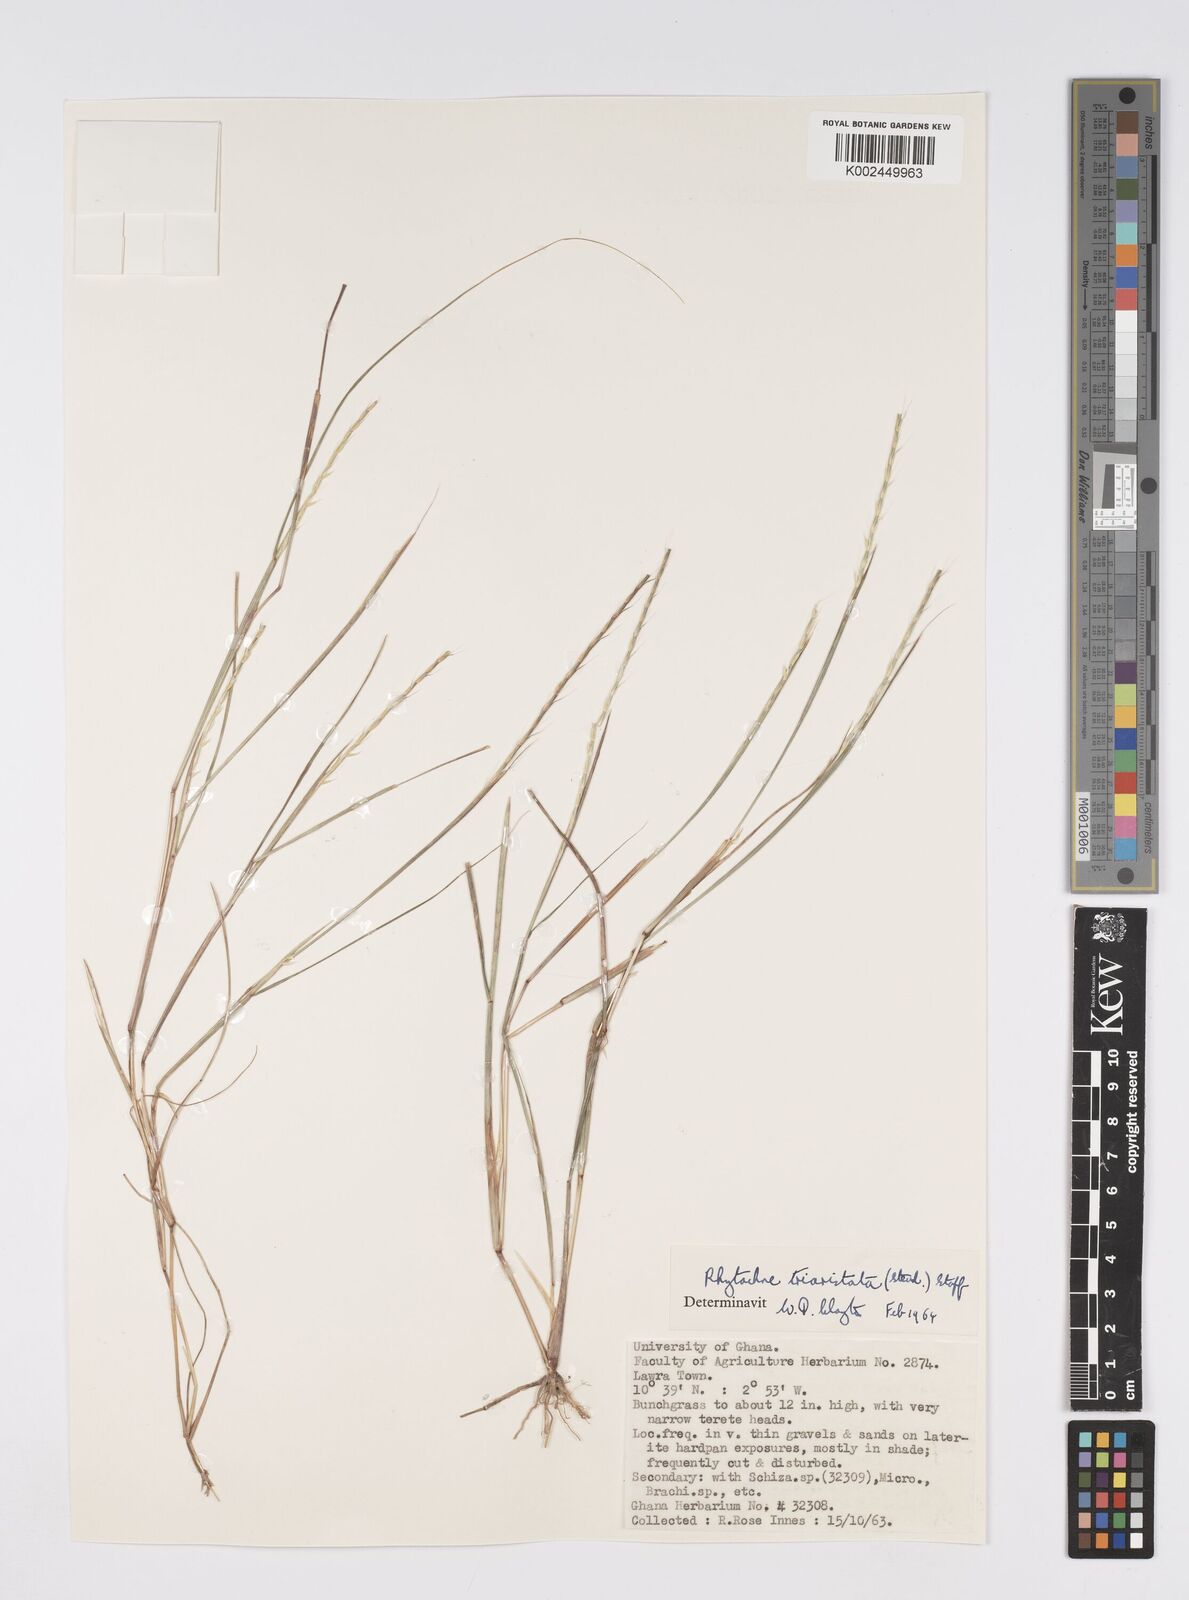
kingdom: Plantae
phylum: Tracheophyta
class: Liliopsida
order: Poales
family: Poaceae
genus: Rhytachne
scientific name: Rhytachne triaristata
